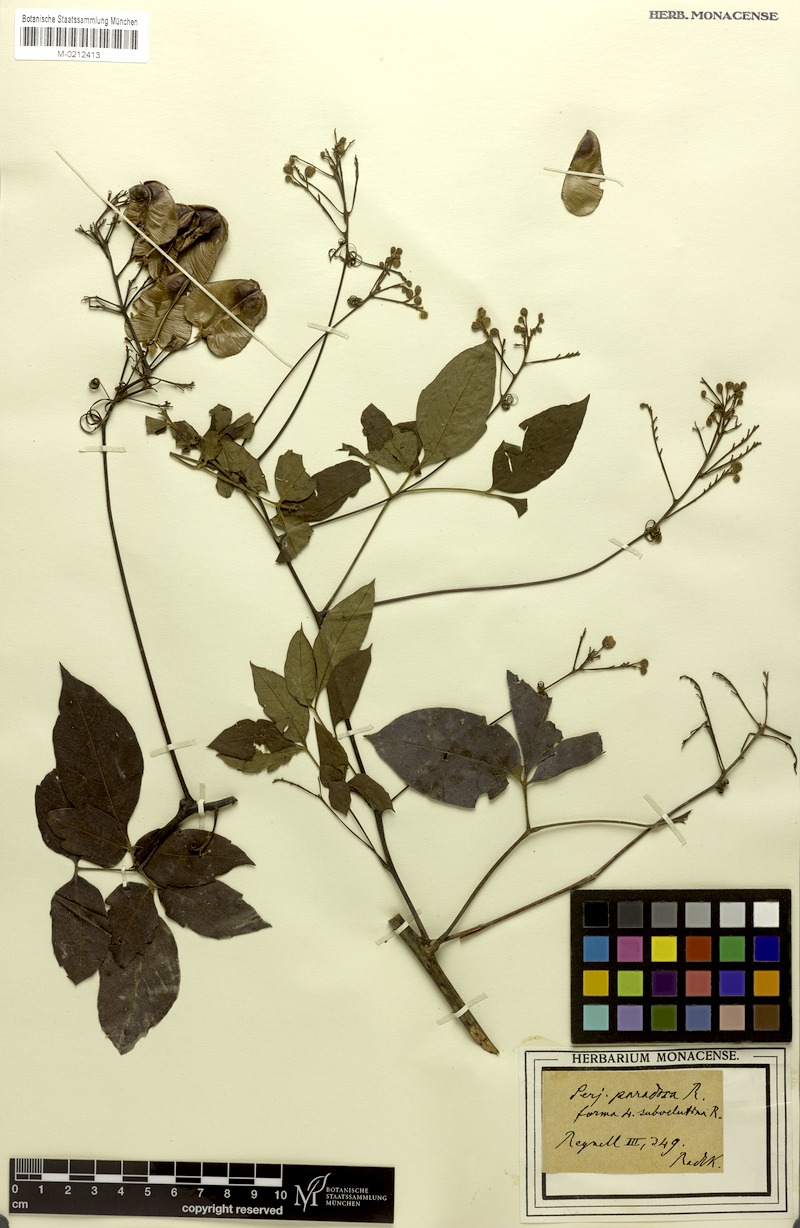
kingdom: Plantae
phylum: Tracheophyta
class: Magnoliopsida
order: Sapindales
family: Sapindaceae
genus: Serjania
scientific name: Serjania paradoxa
